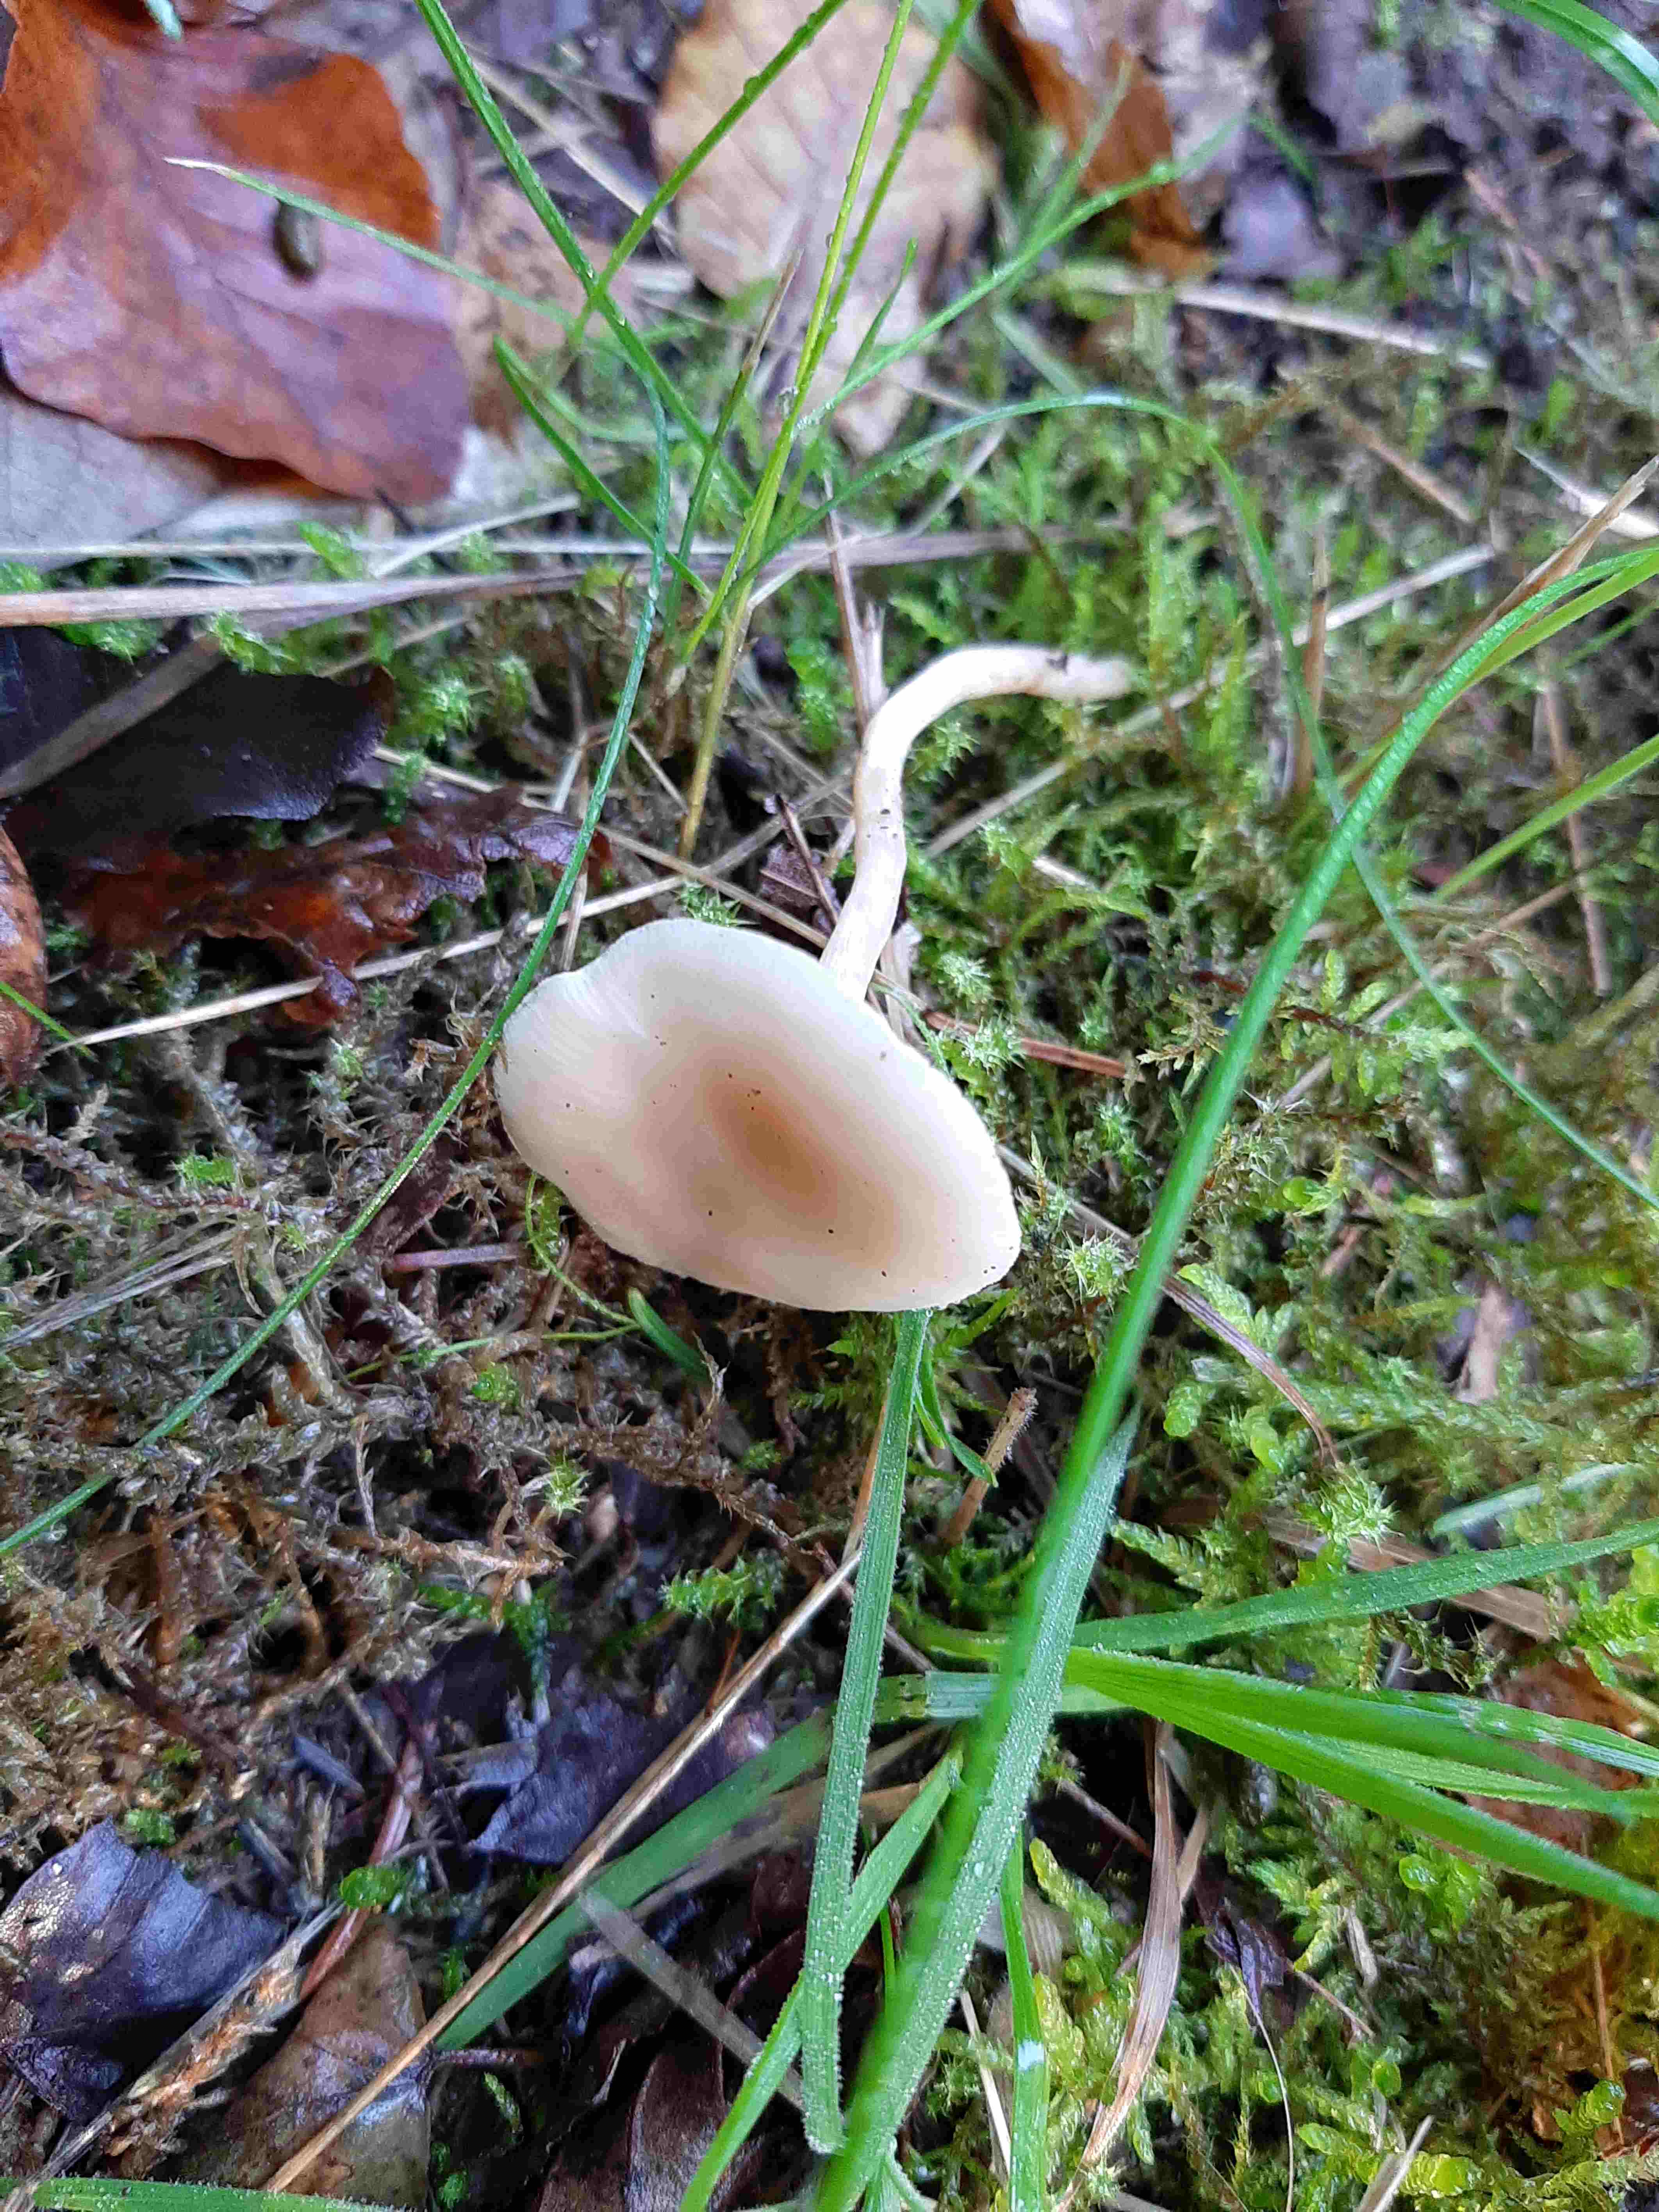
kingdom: Fungi
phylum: Basidiomycota
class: Agaricomycetes
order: Agaricales
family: Tricholomataceae
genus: Clitocybe
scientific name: Clitocybe fragrans
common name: vellugtende tragthat
